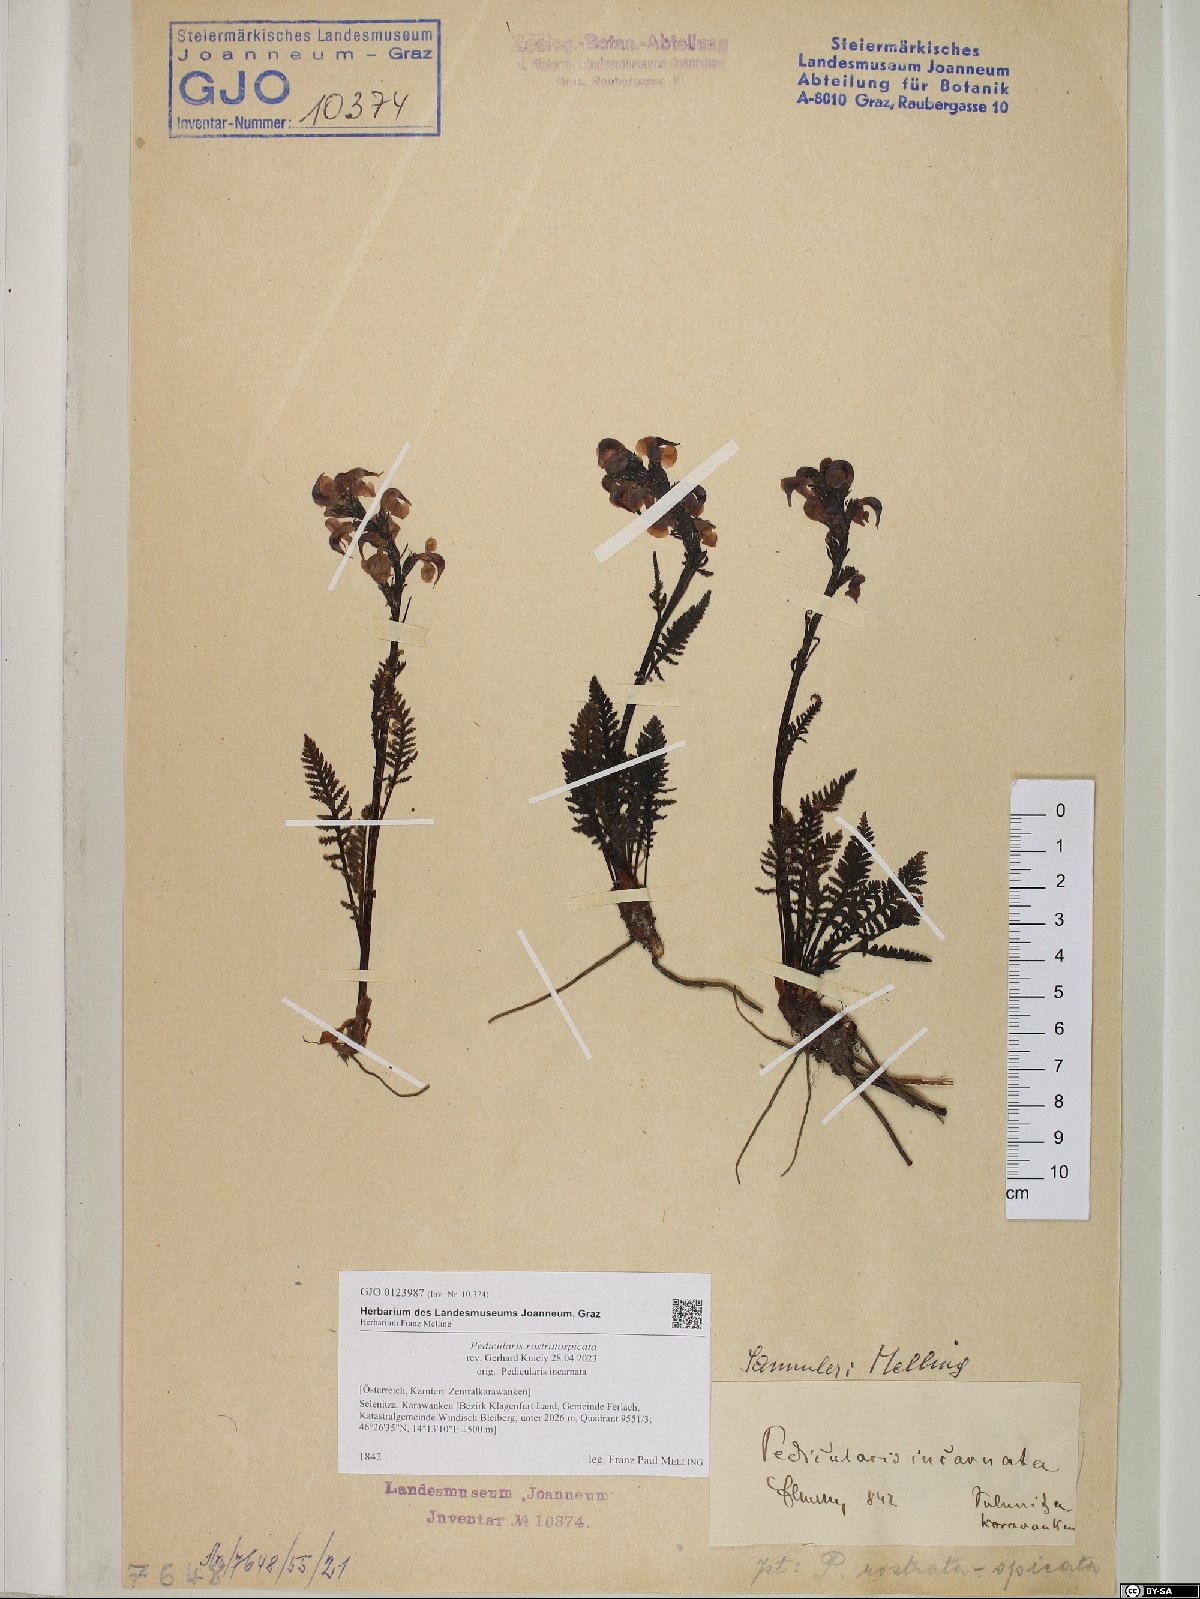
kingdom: Plantae
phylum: Tracheophyta
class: Magnoliopsida
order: Lamiales
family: Orobanchaceae
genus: Pedicularis
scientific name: Pedicularis rostratospicata
